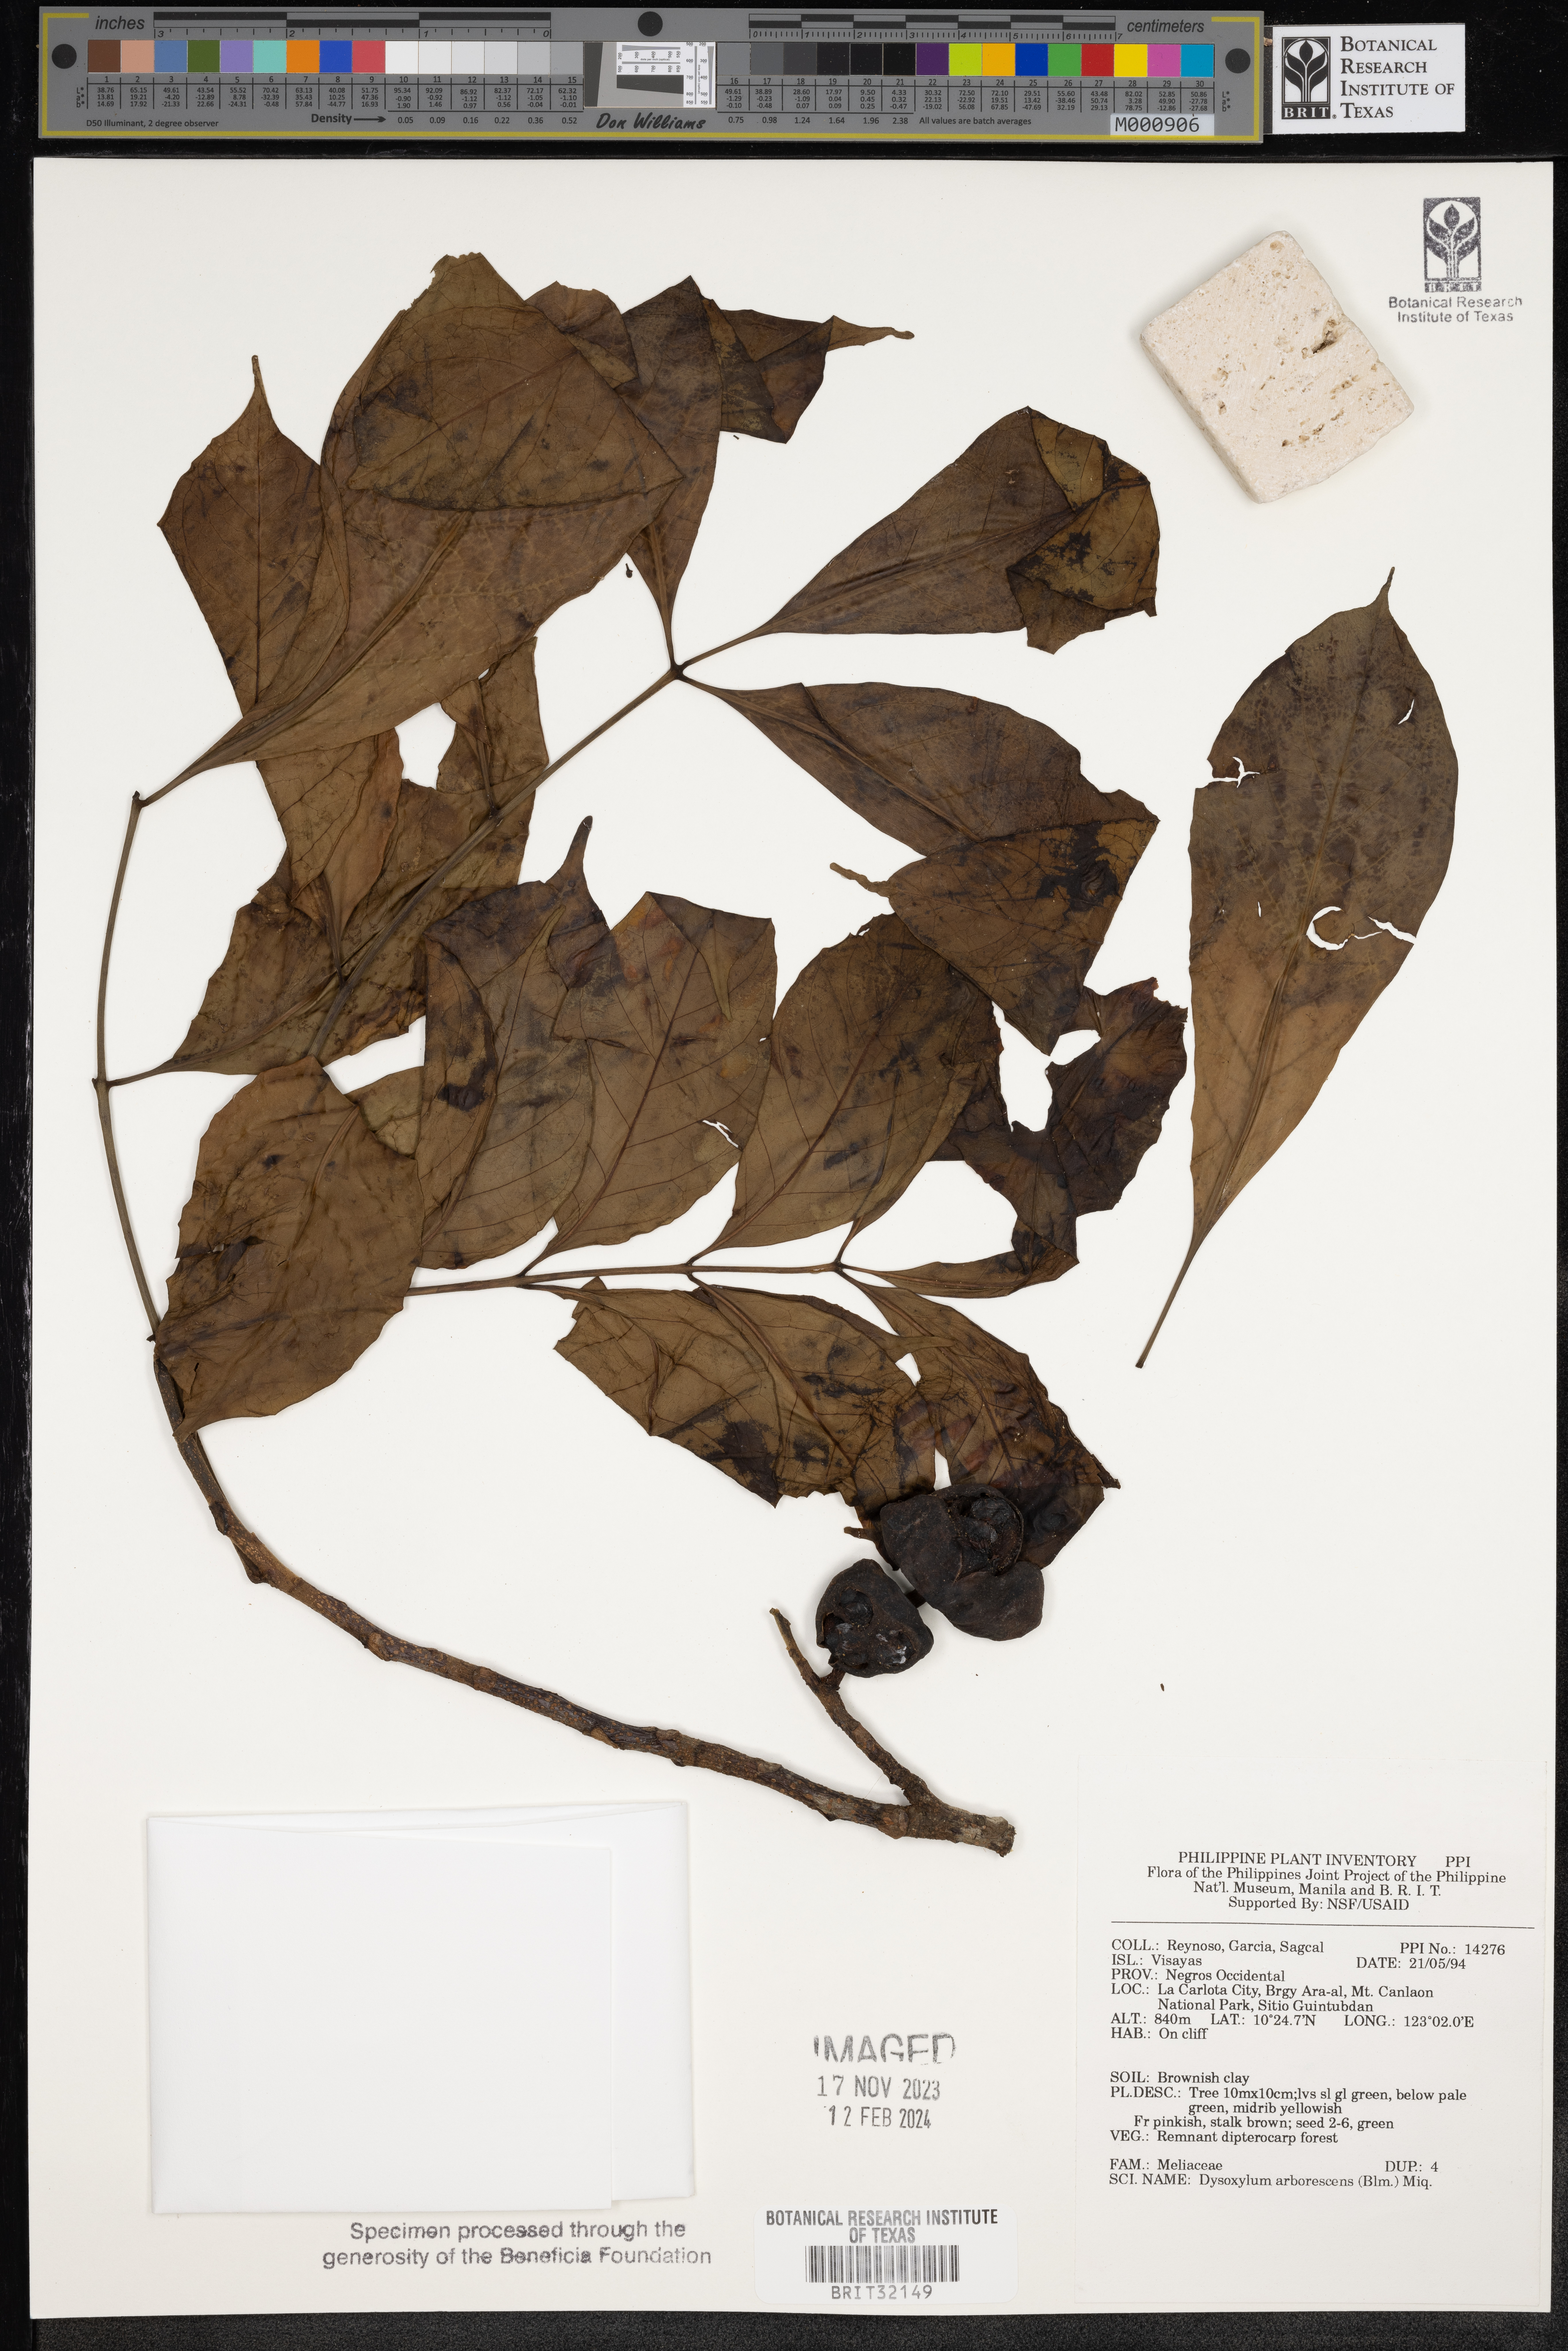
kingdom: Plantae
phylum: Tracheophyta
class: Magnoliopsida
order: Sapindales
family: Meliaceae
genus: Goniocheton
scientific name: Goniocheton arborescens
